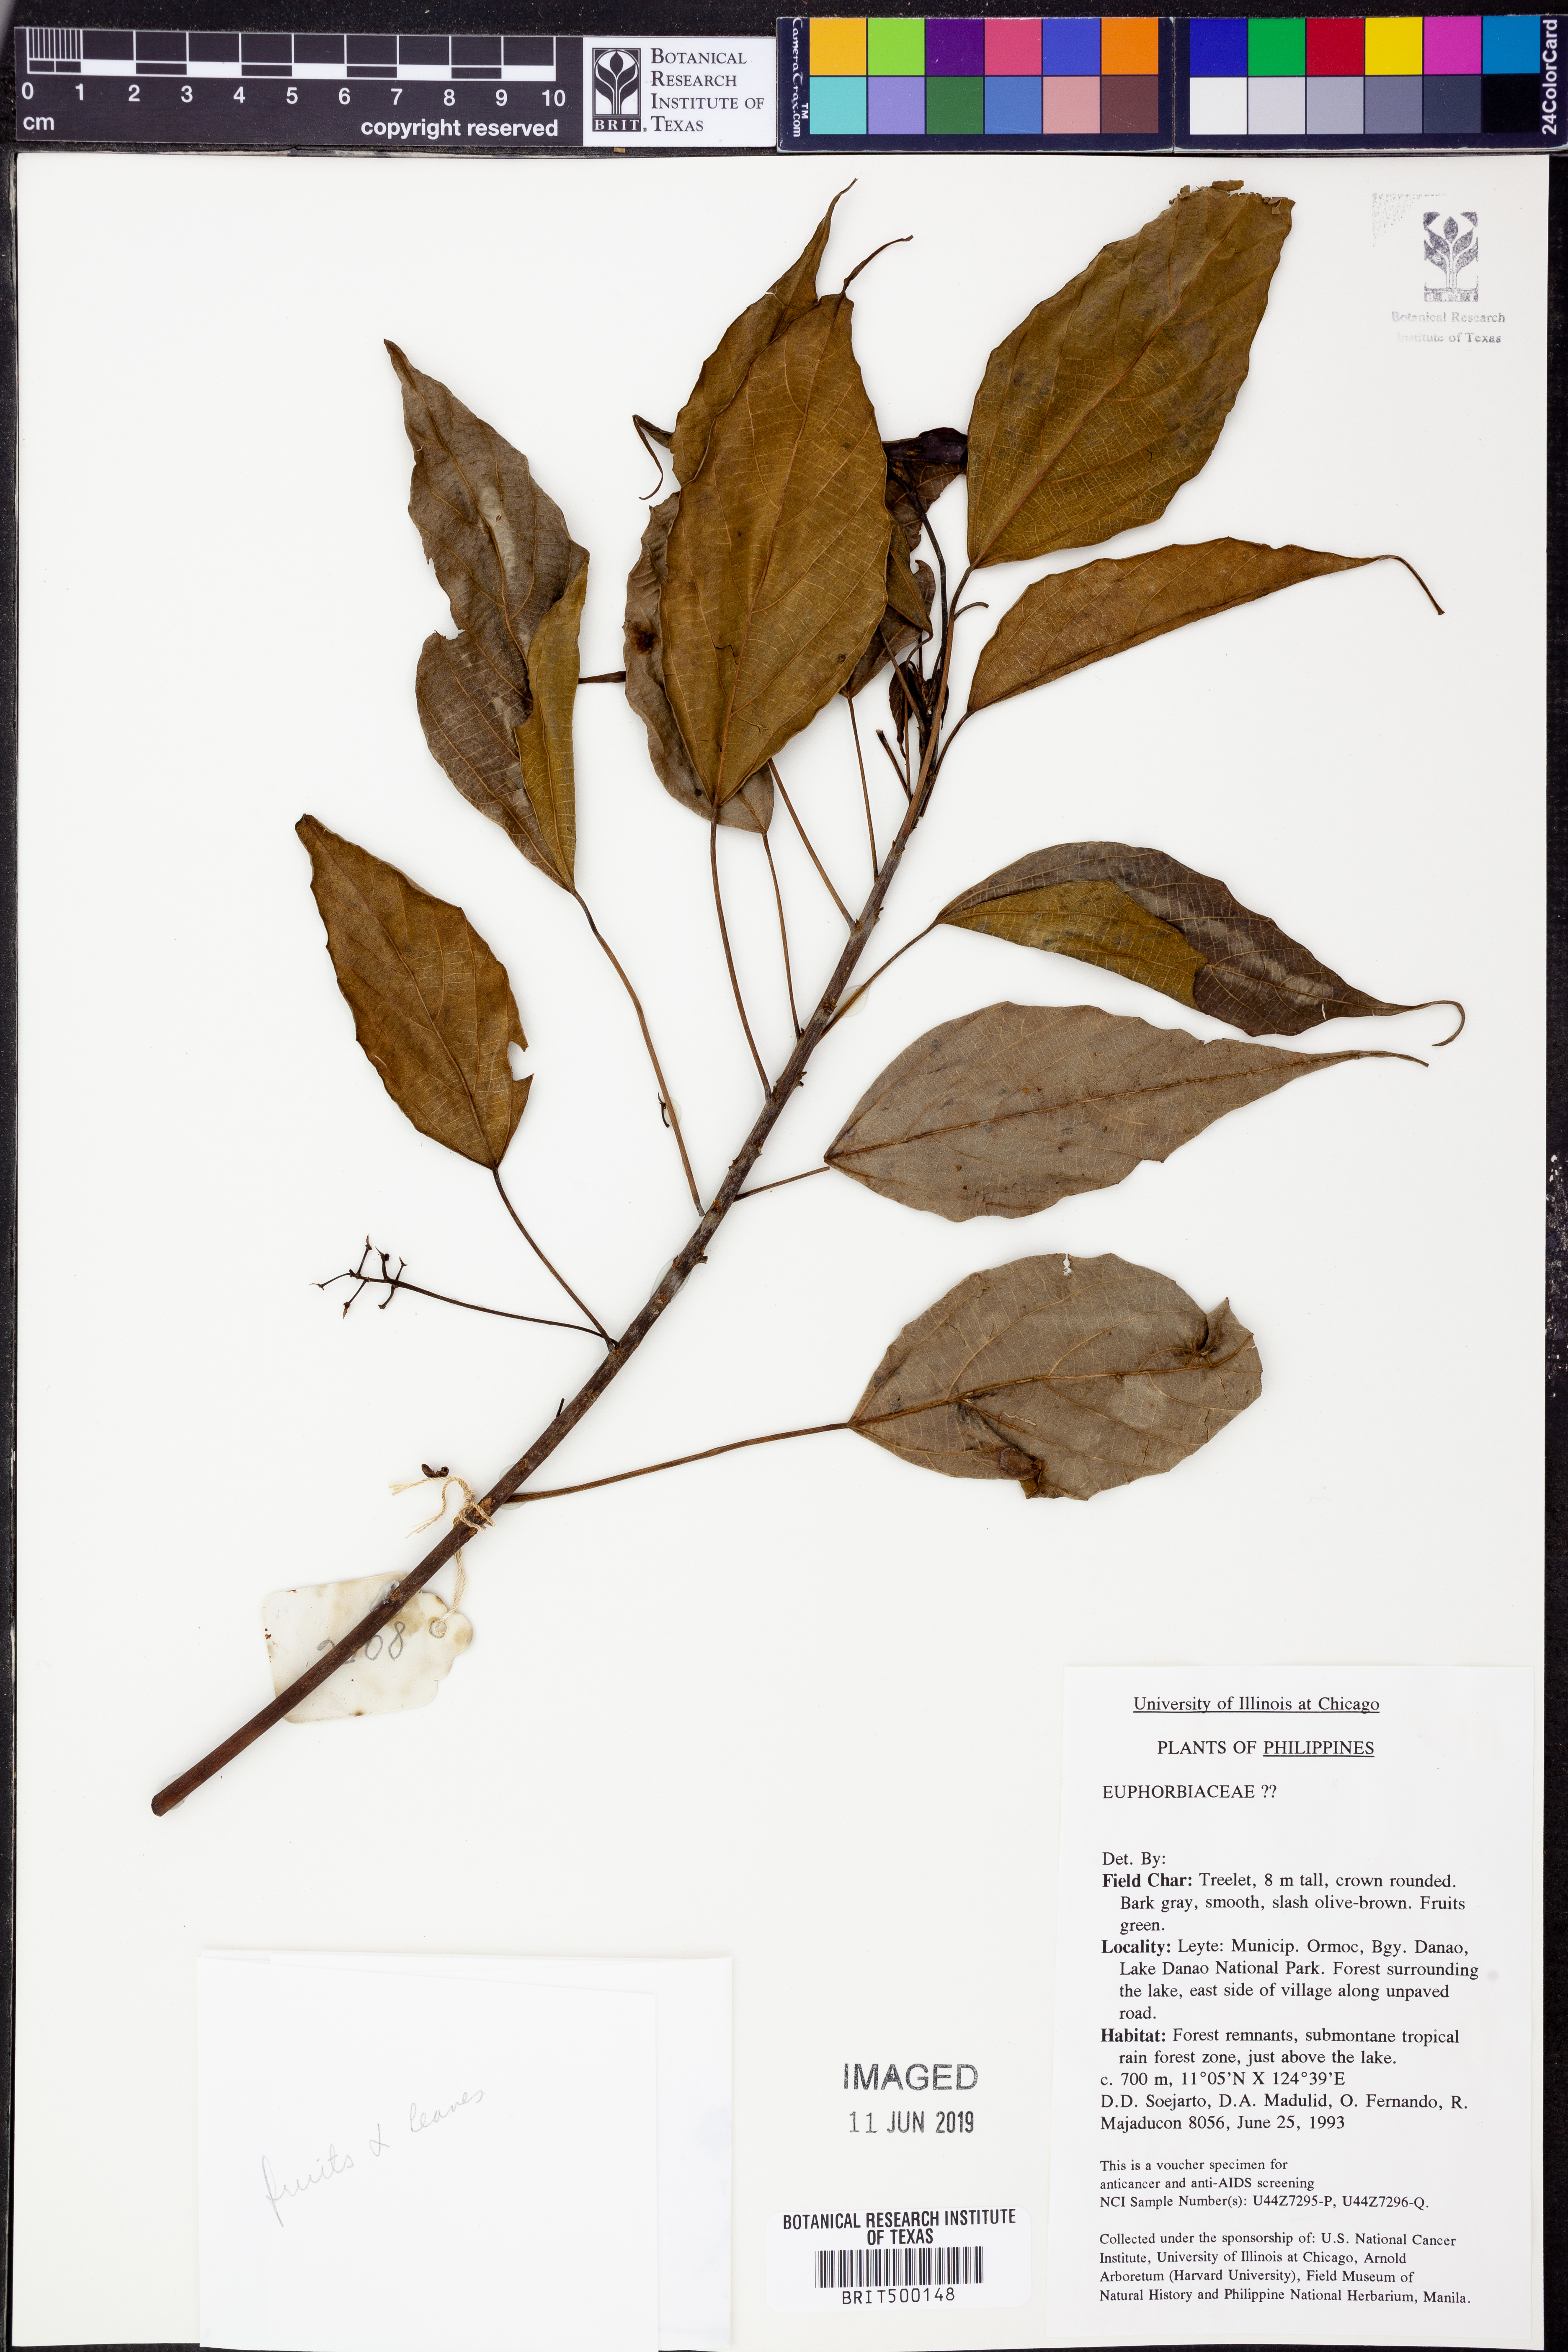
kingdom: Plantae
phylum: Tracheophyta
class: Magnoliopsida
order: Malpighiales
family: Euphorbiaceae
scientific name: Euphorbiaceae
